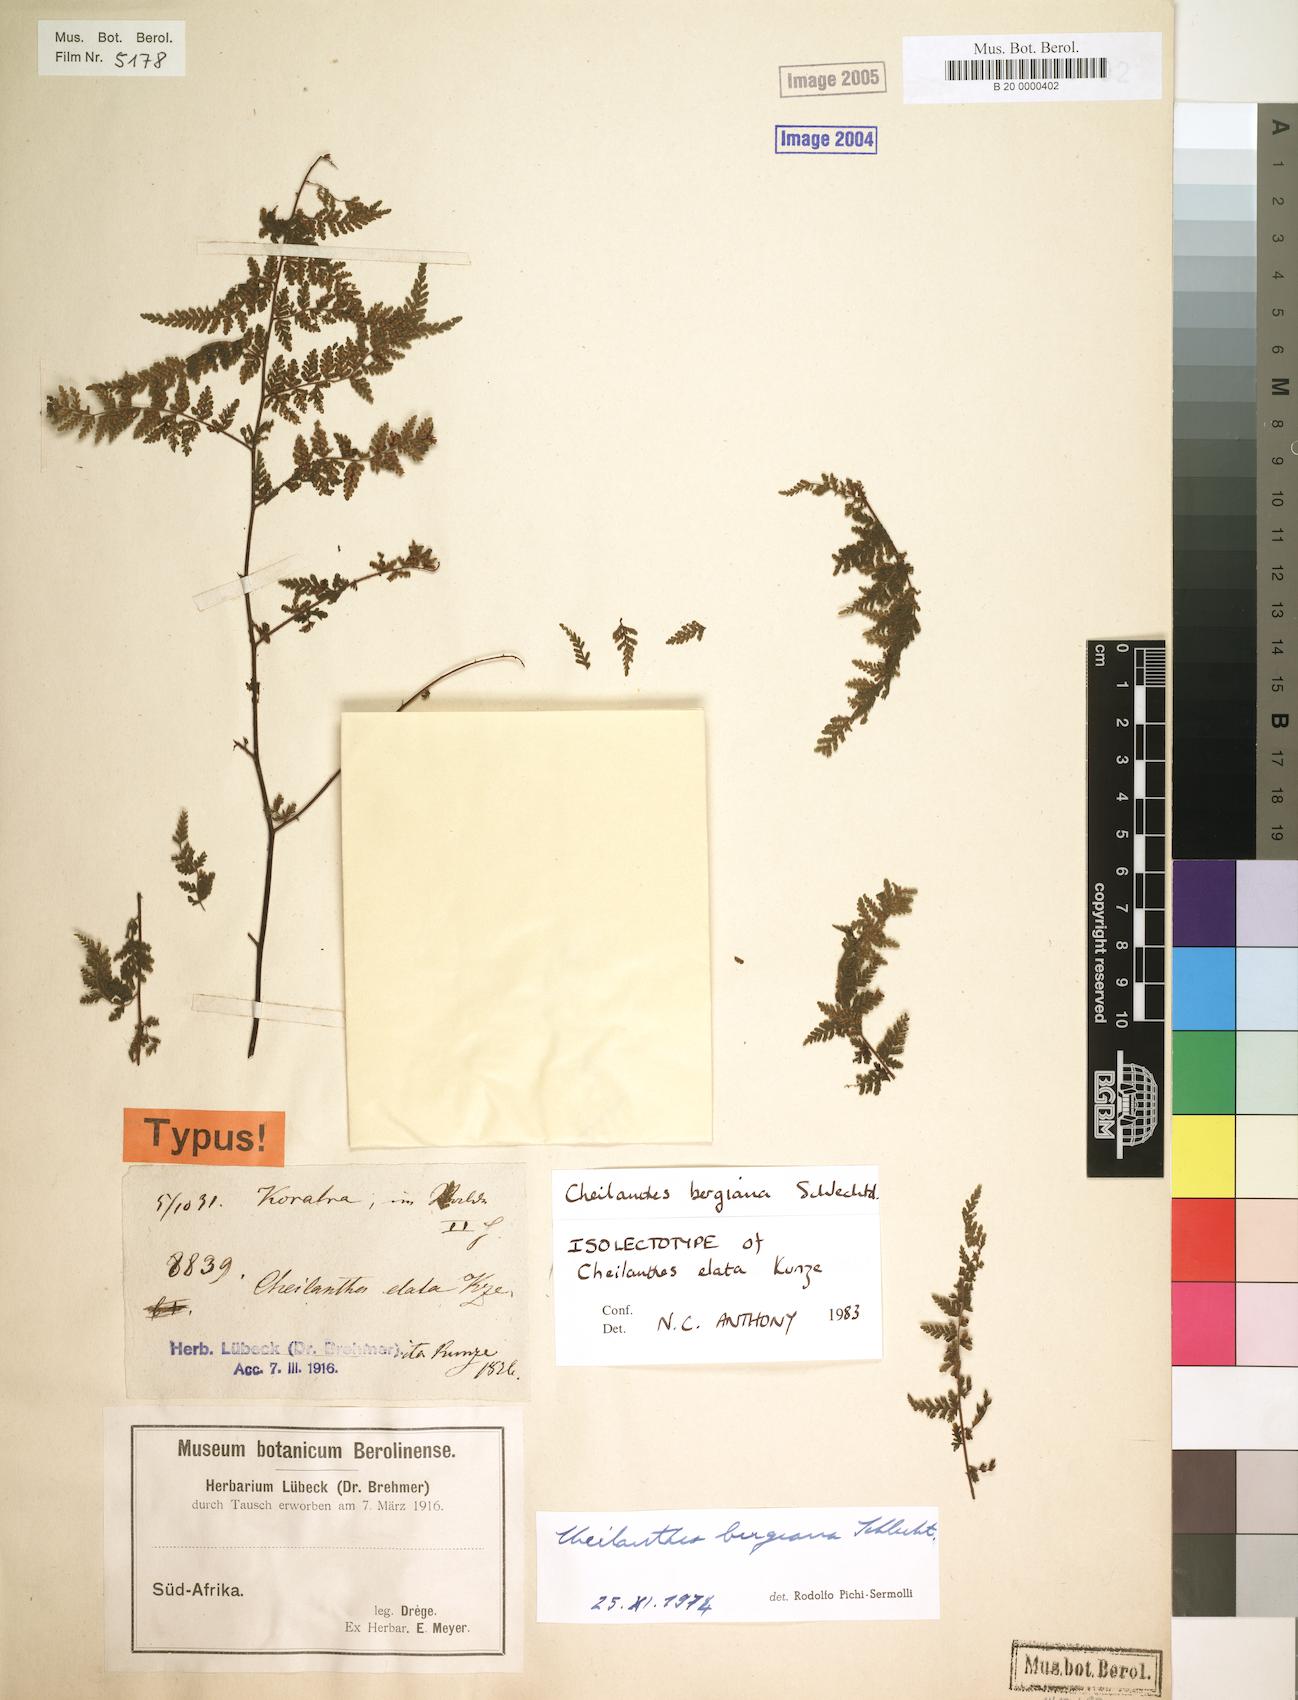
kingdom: Plantae
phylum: Tracheophyta
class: Polypodiopsida
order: Polypodiales
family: Pteridaceae
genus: Cheilanthes
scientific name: Cheilanthes bergiana
